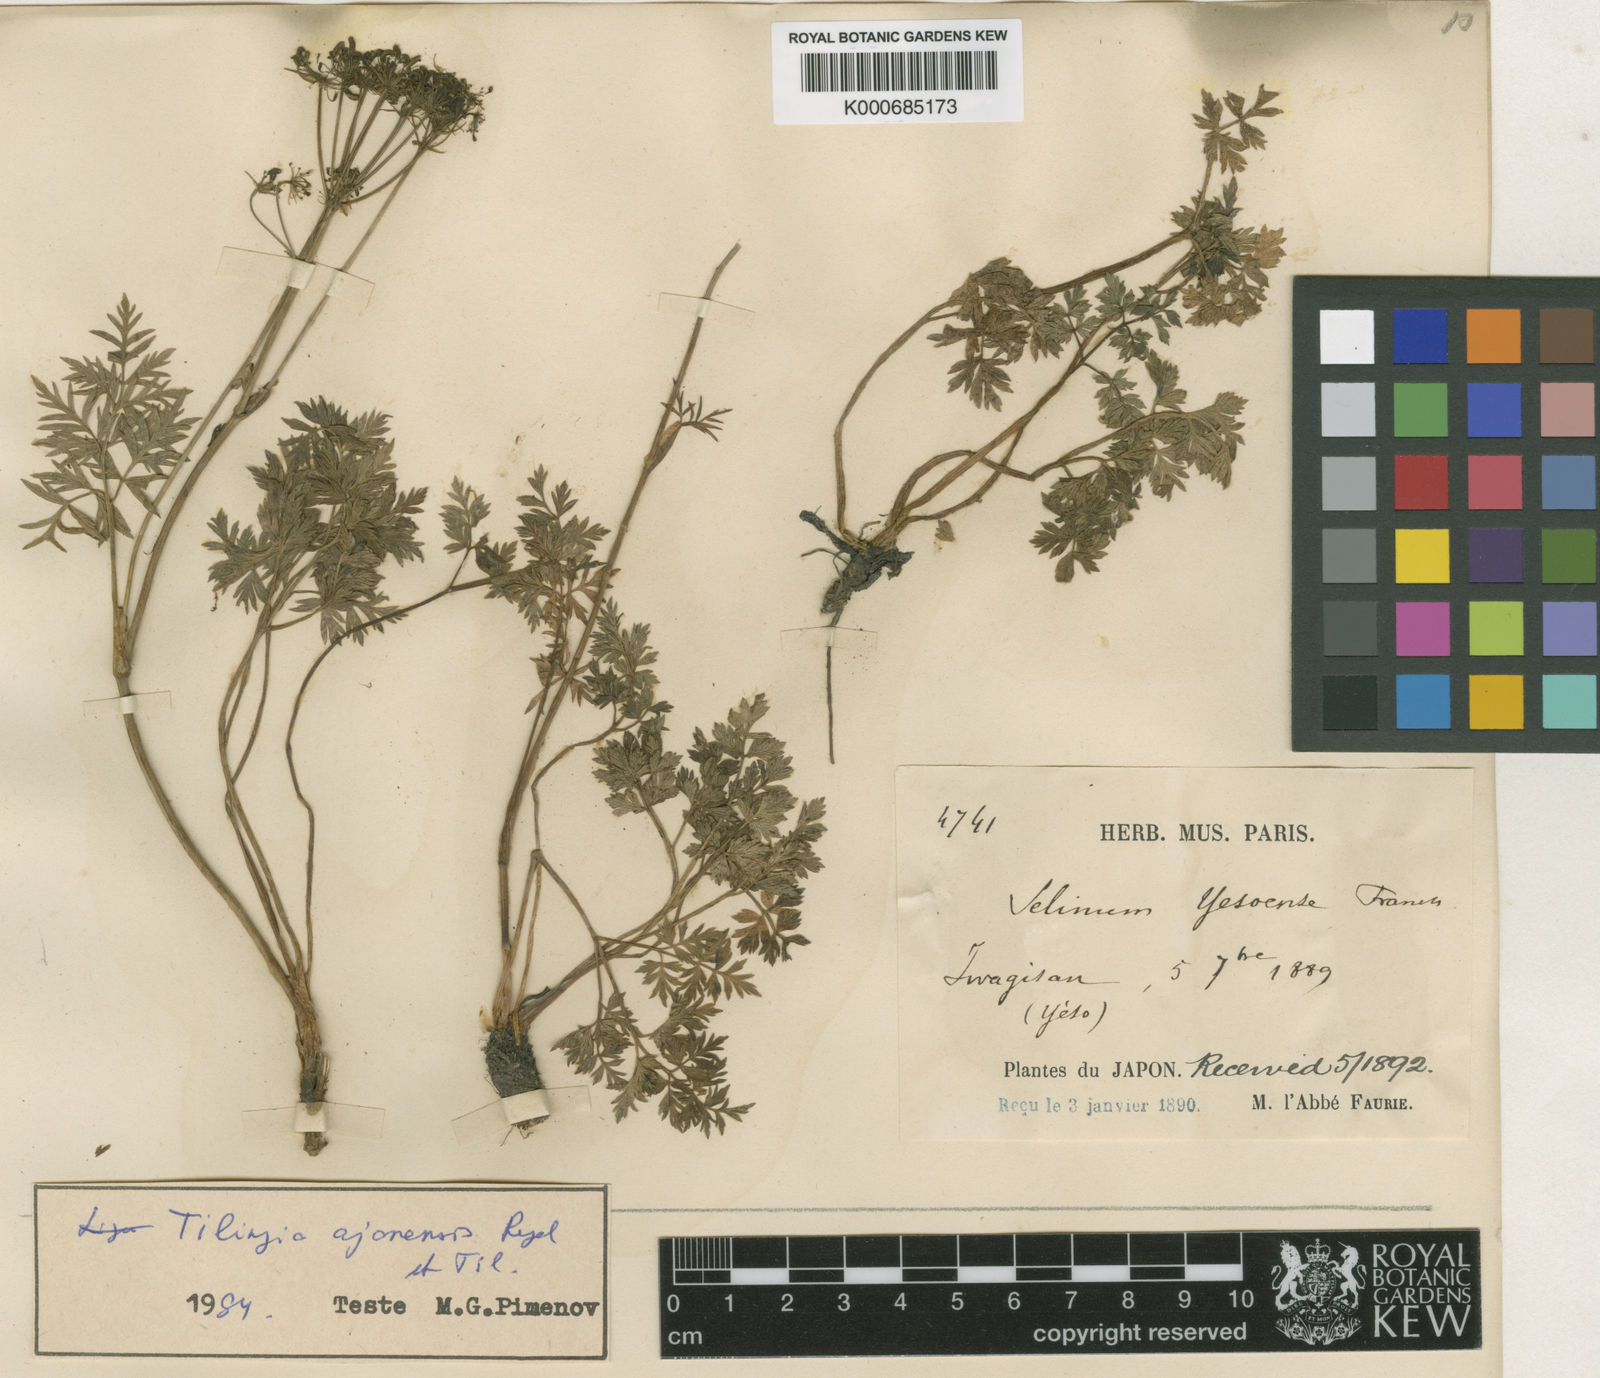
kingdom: Plantae
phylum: Tracheophyta
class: Magnoliopsida
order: Apiales
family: Apiaceae
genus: Selinum
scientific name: Selinum
